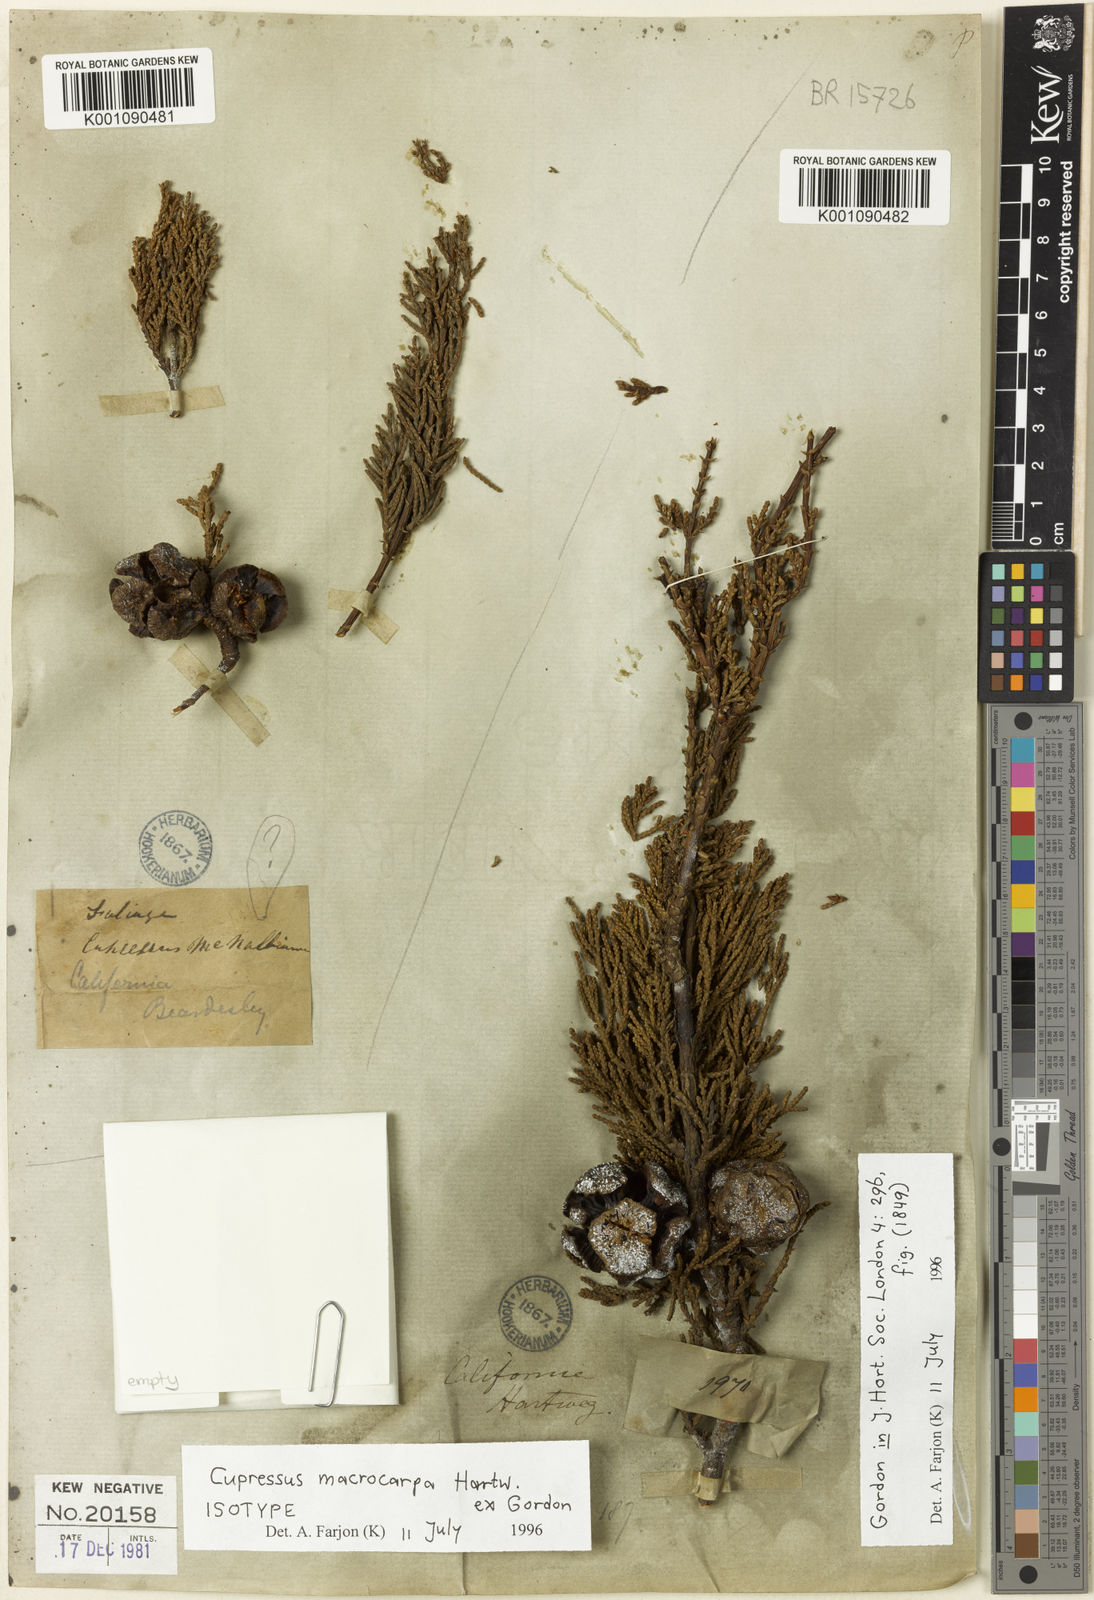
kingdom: Plantae
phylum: Tracheophyta
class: Pinopsida
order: Pinales
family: Cupressaceae
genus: Cupressus
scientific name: Cupressus
